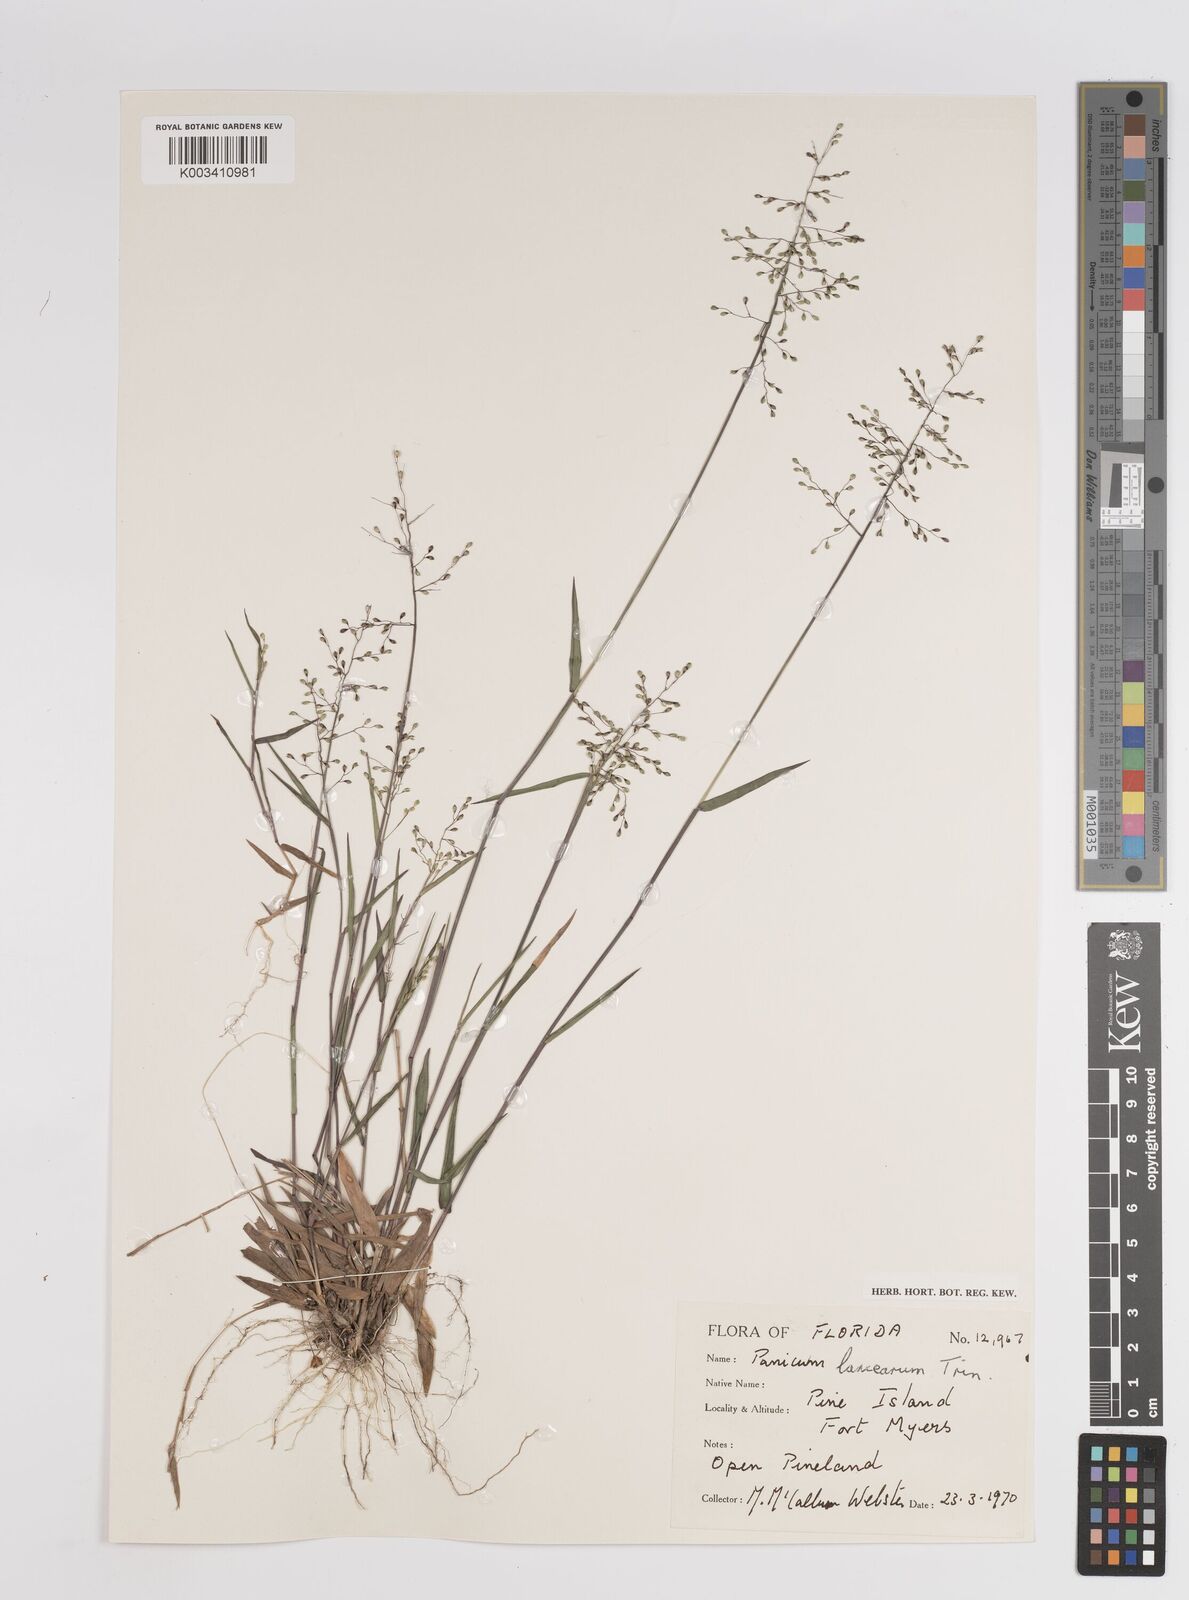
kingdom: Plantae
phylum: Tracheophyta
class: Liliopsida
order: Poales
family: Poaceae
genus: Dichanthelium
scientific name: Dichanthelium portoricense
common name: American panicgrass
